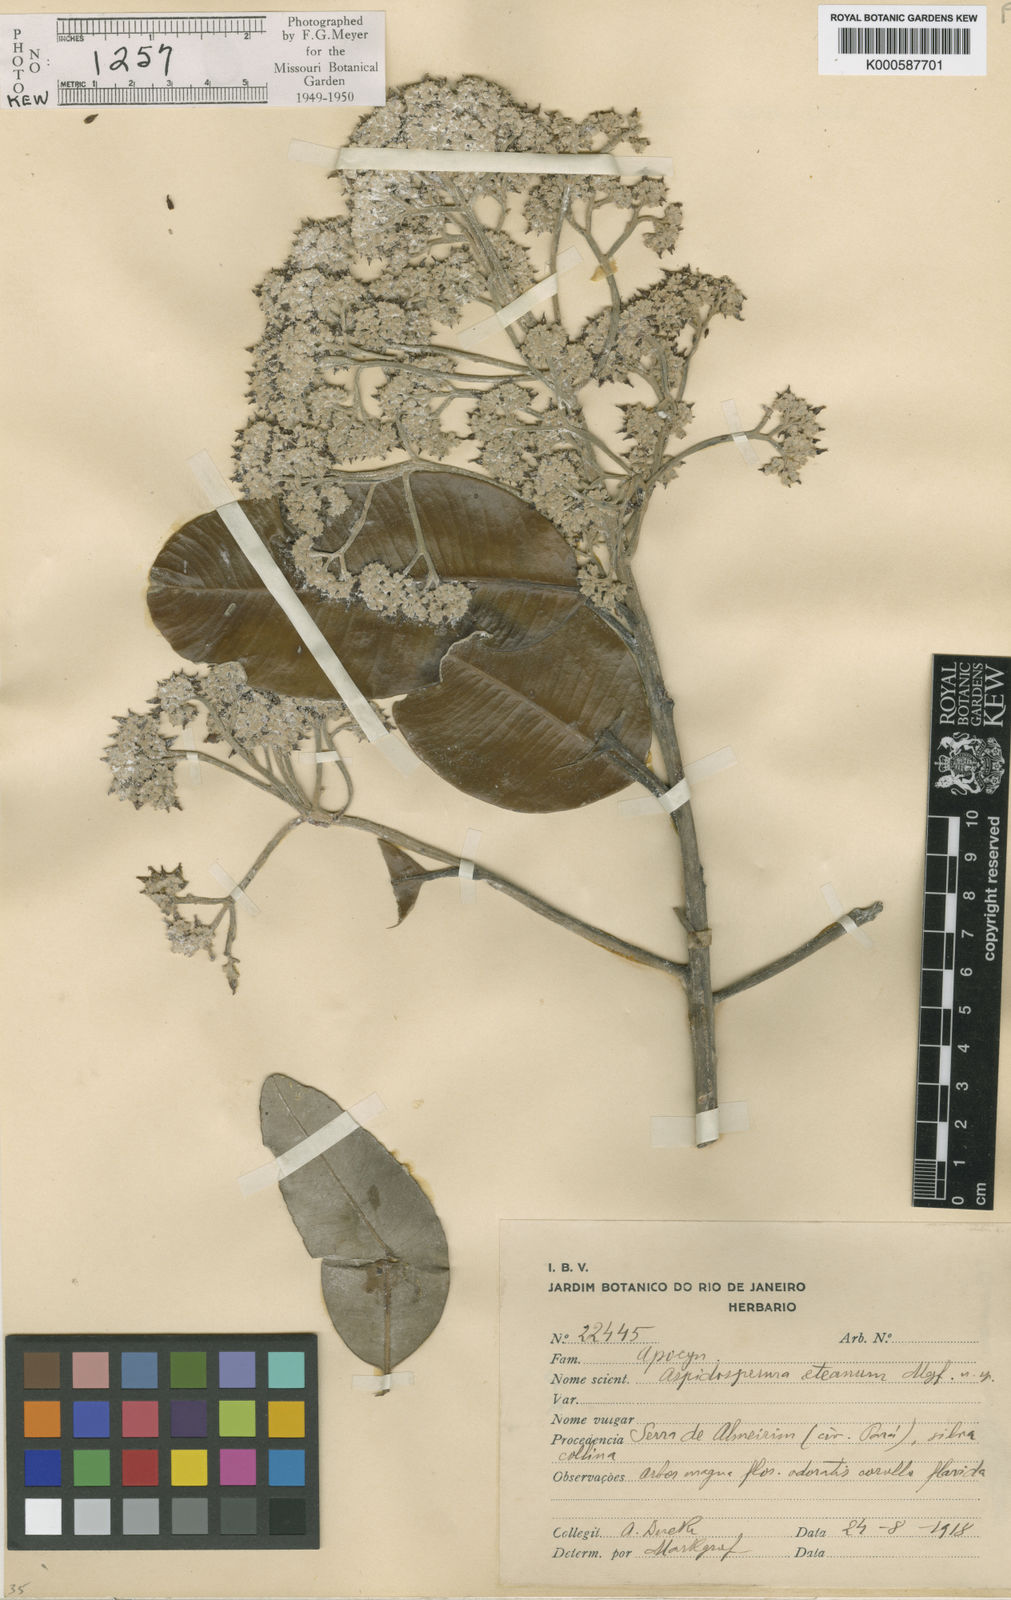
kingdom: Plantae
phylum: Tracheophyta
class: Magnoliopsida
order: Gentianales
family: Apocynaceae
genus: Aspidosperma
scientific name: Aspidosperma
